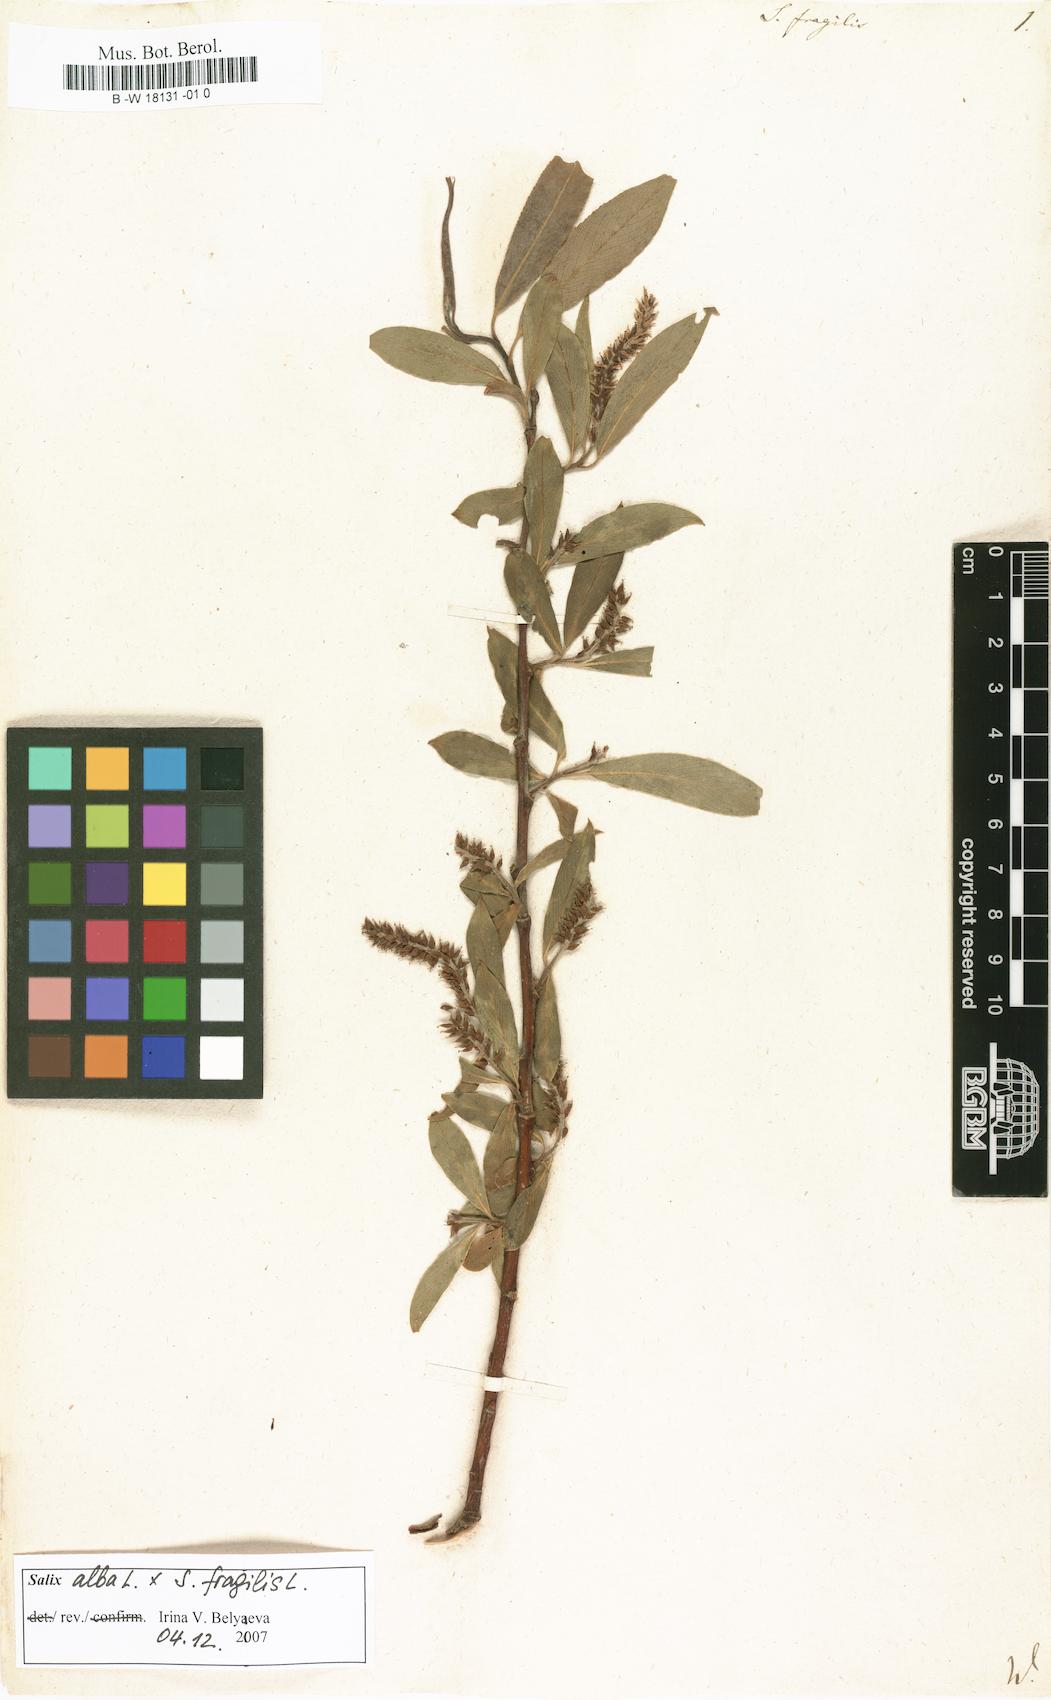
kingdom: Plantae
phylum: Tracheophyta
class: Magnoliopsida
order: Malpighiales
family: Salicaceae
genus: Salix
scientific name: Salix fragilis
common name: Crack willow
